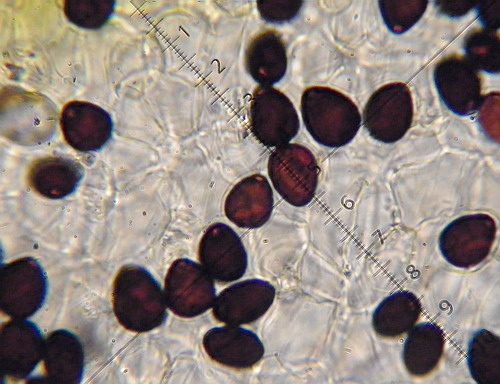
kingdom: Fungi
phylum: Basidiomycota
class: Agaricomycetes
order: Agaricales
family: Psathyrellaceae
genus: Parasola
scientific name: Parasola schroeteri
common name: bredsporet hjulhat
